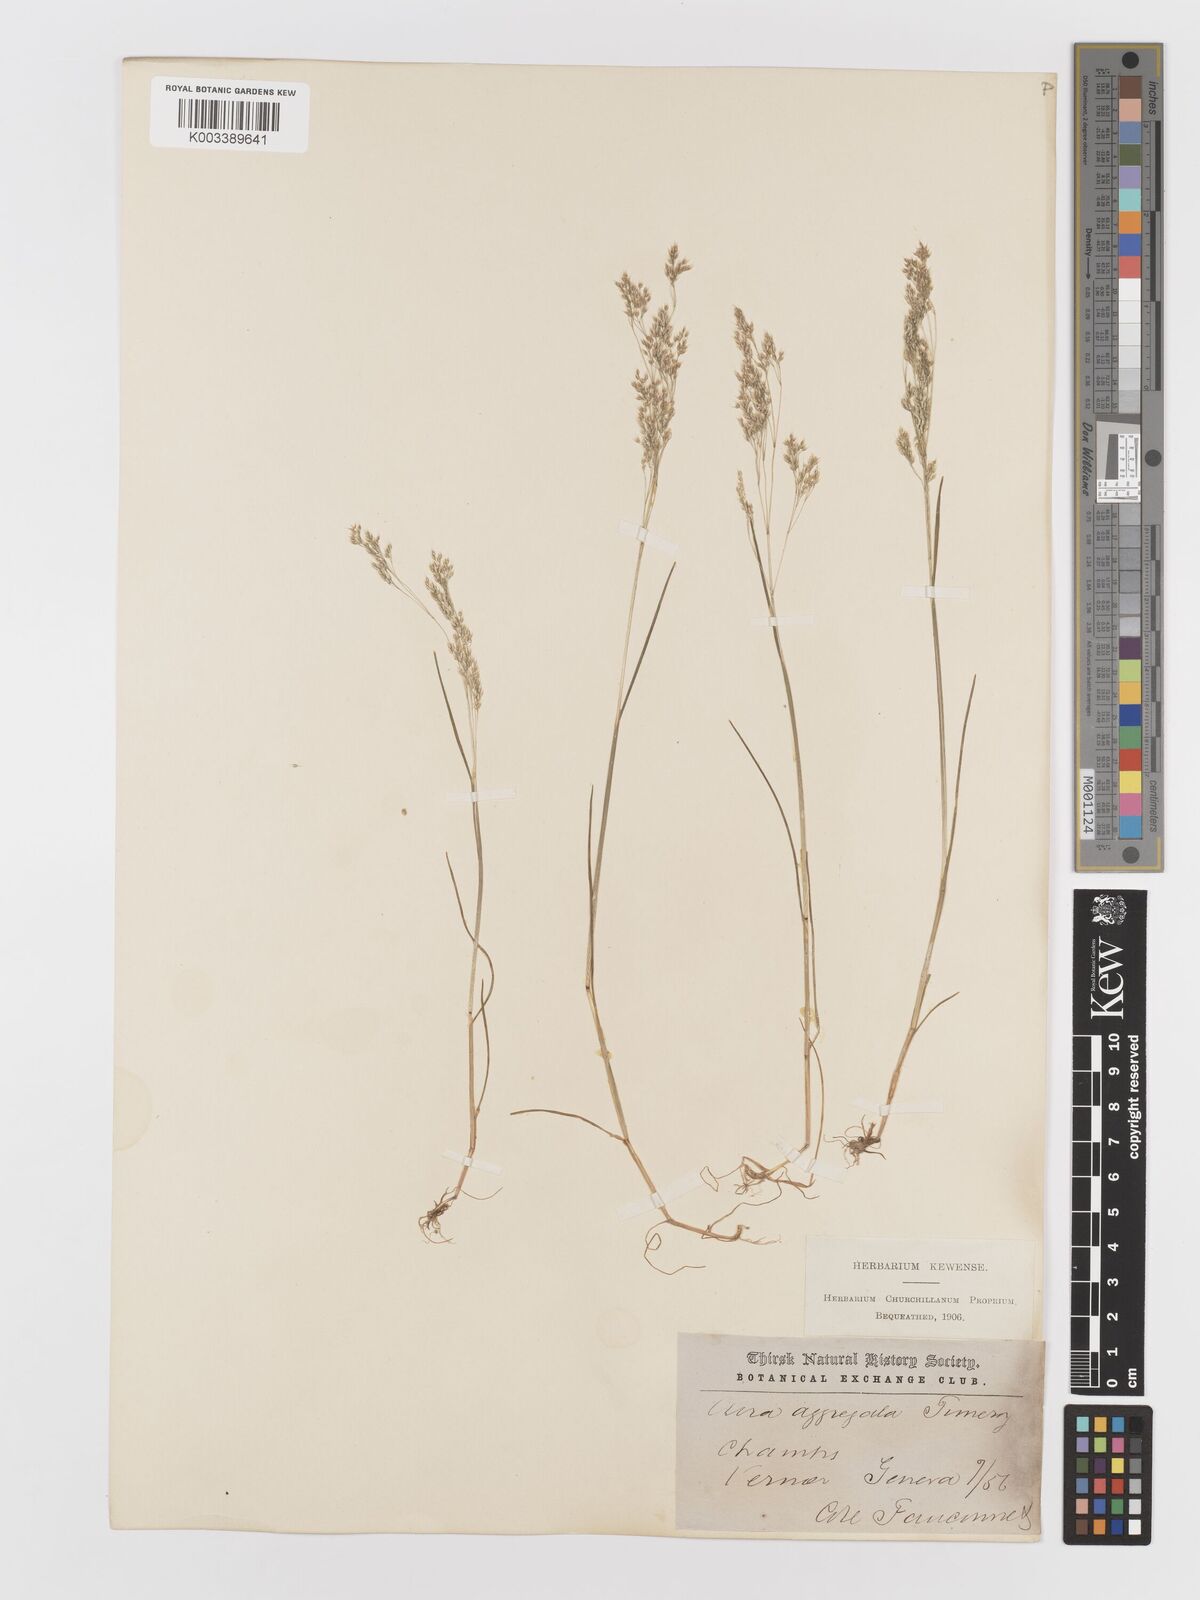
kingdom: Plantae
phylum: Tracheophyta
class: Liliopsida
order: Poales
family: Poaceae
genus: Aira
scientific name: Aira caryophyllea
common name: Silver hairgrass
